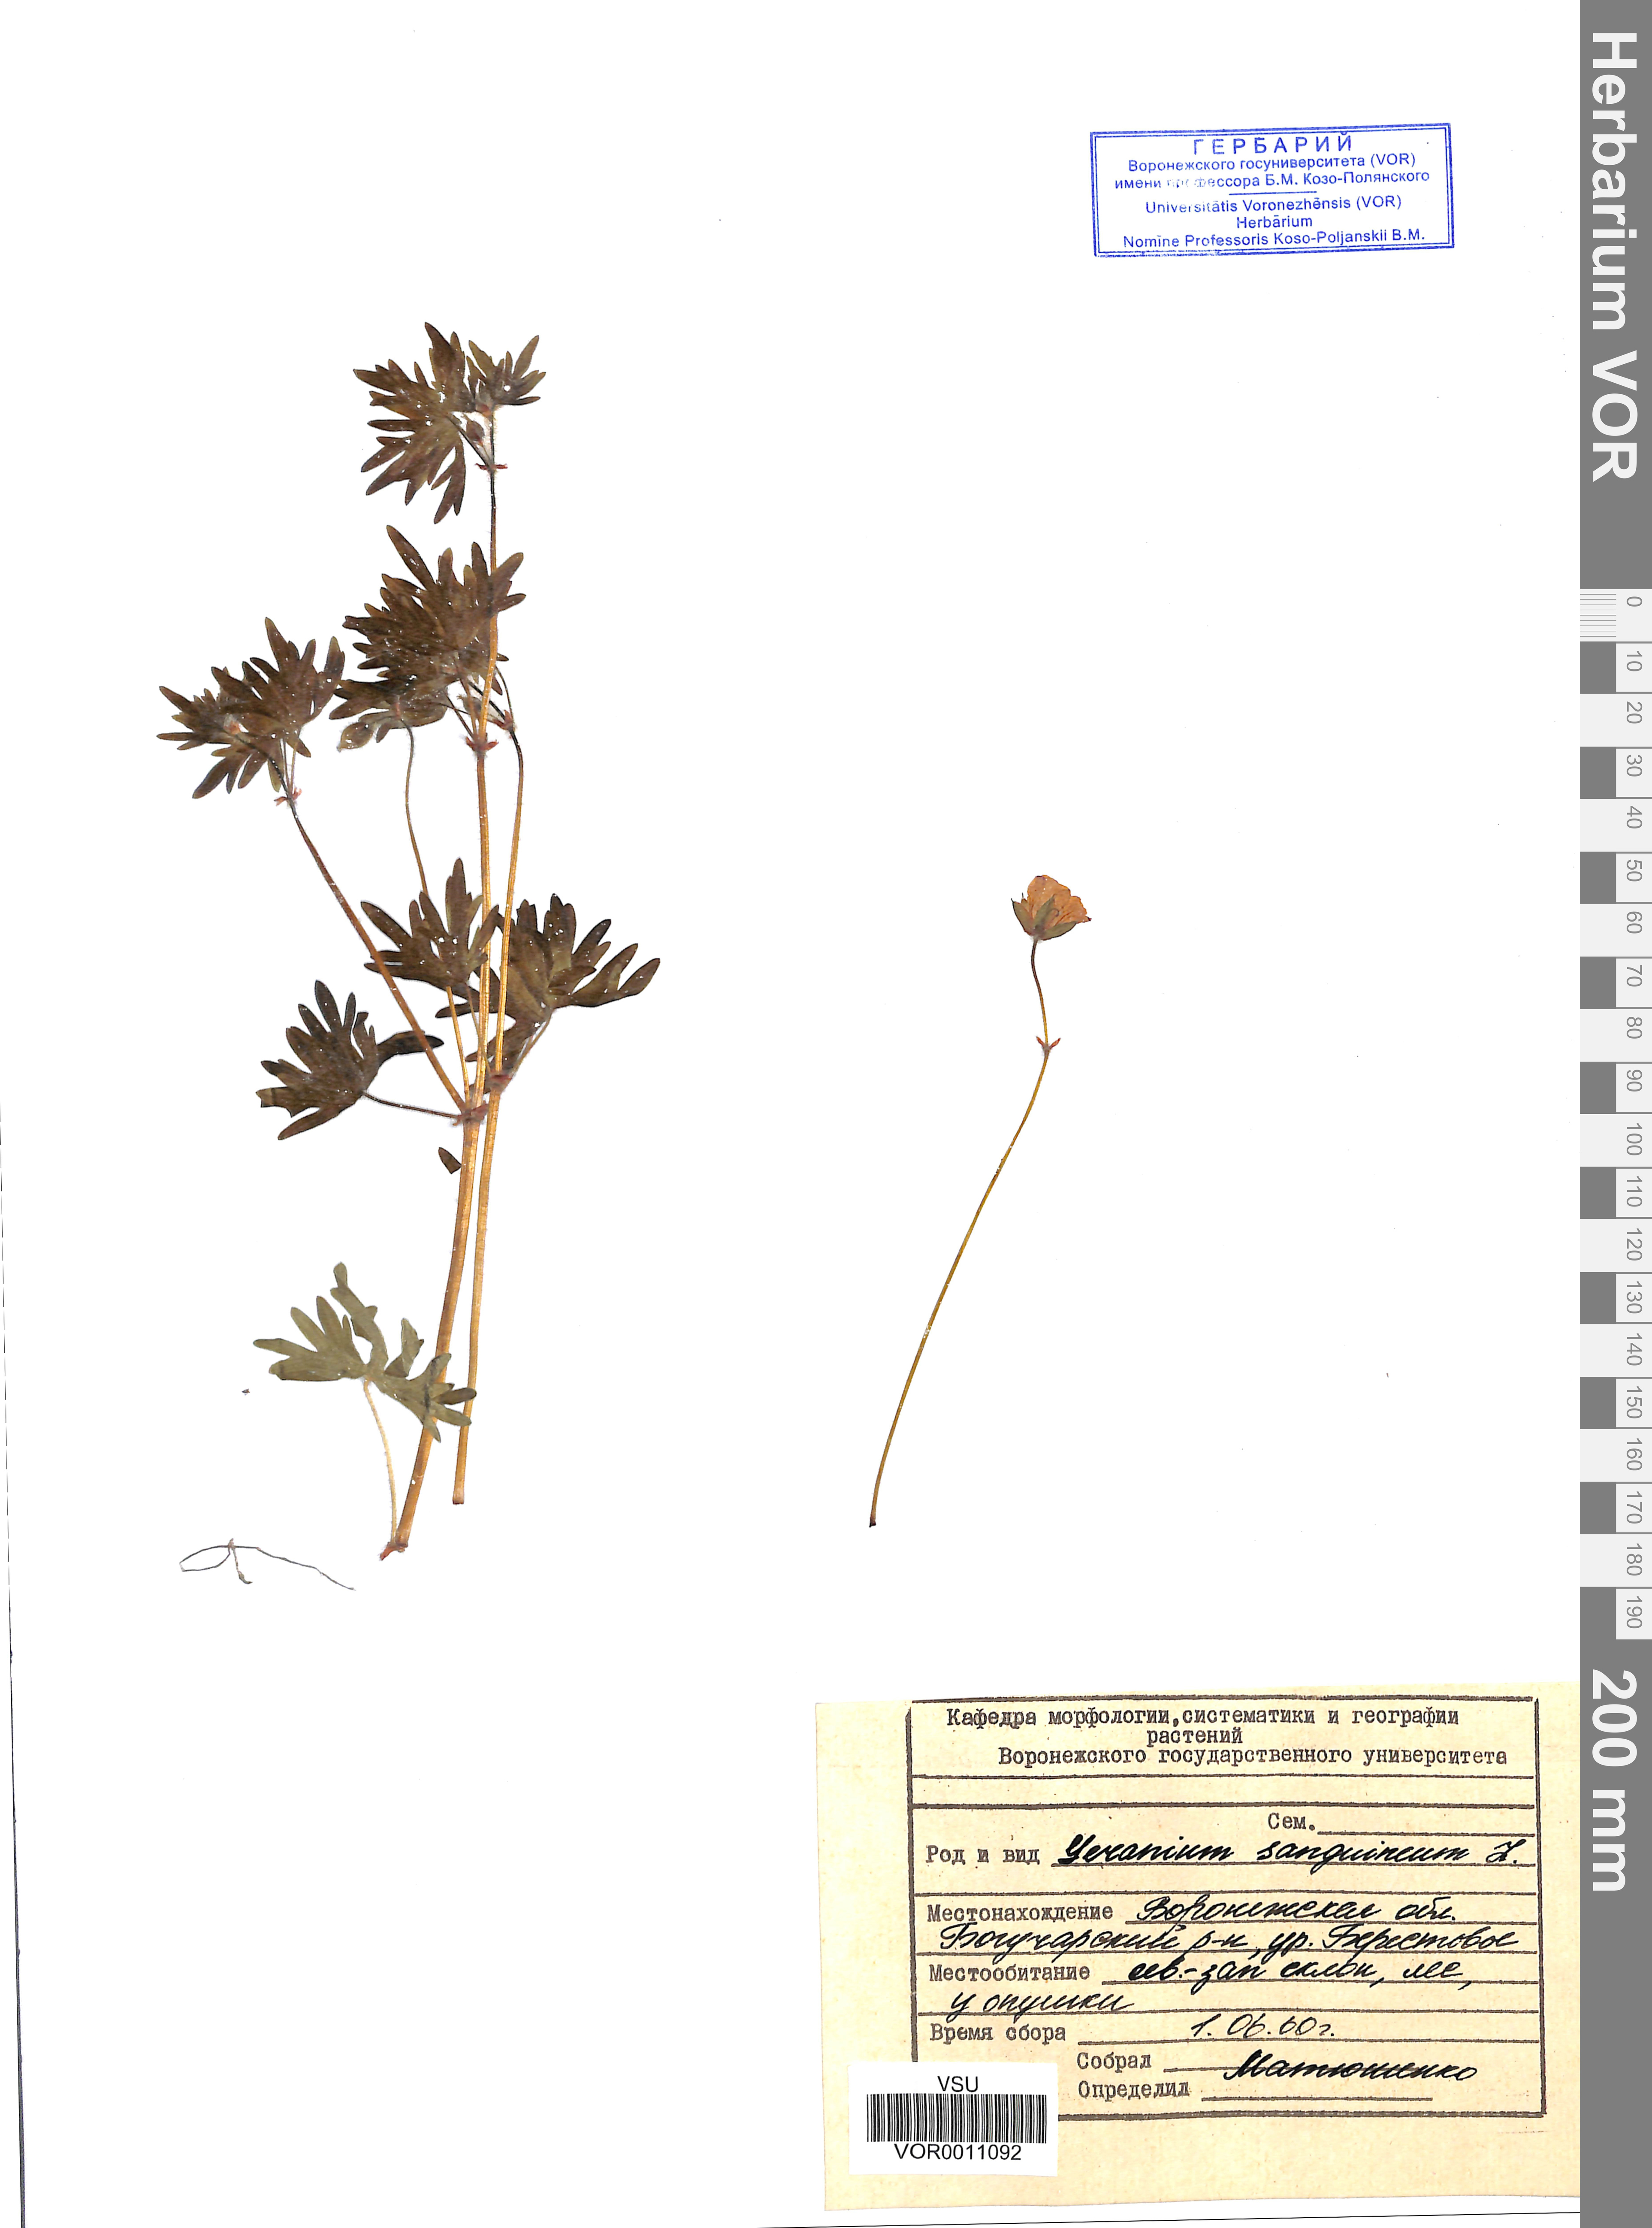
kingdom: Plantae
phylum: Tracheophyta
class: Magnoliopsida
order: Geraniales
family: Geraniaceae
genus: Geranium
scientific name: Geranium sanguineum
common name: Bloody crane's-bill
